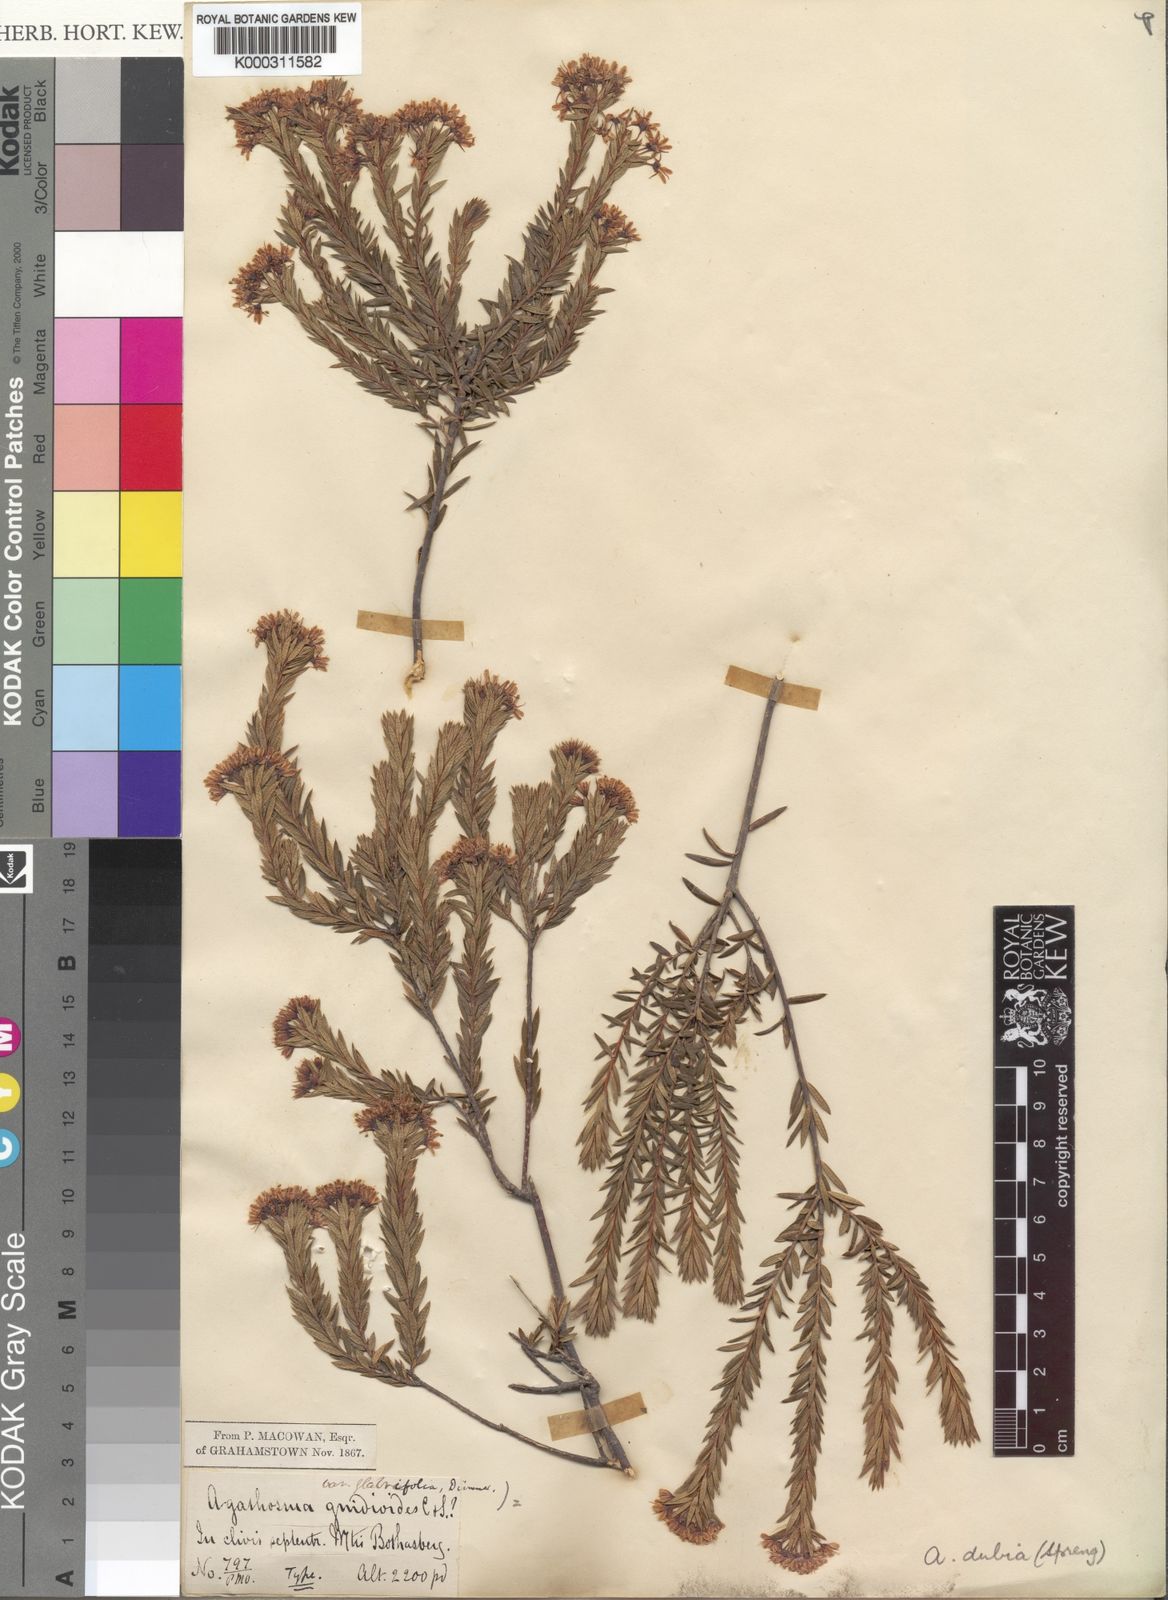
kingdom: Plantae
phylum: Tracheophyta
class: Magnoliopsida
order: Sapindales
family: Rutaceae
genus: Agathosma
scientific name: Agathosma puberula
